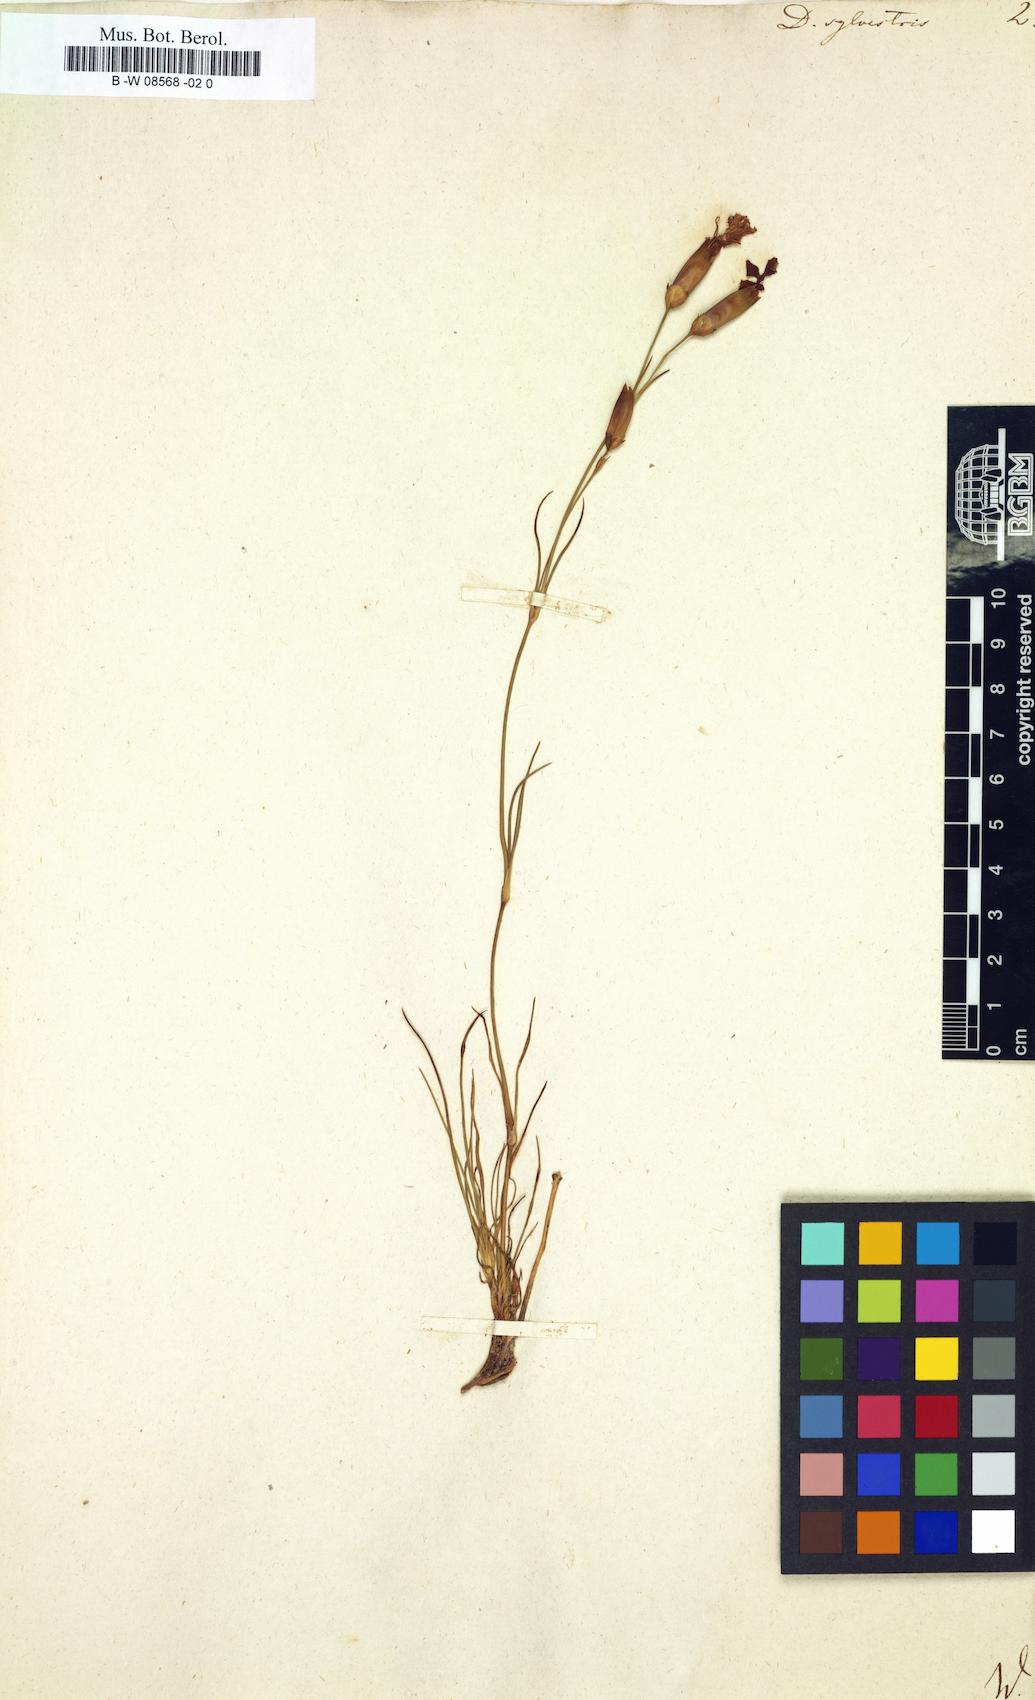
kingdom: Plantae
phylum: Tracheophyta
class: Magnoliopsida
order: Caryophyllales
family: Caryophyllaceae
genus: Dianthus
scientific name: Dianthus sylvestris
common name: Wood pink
